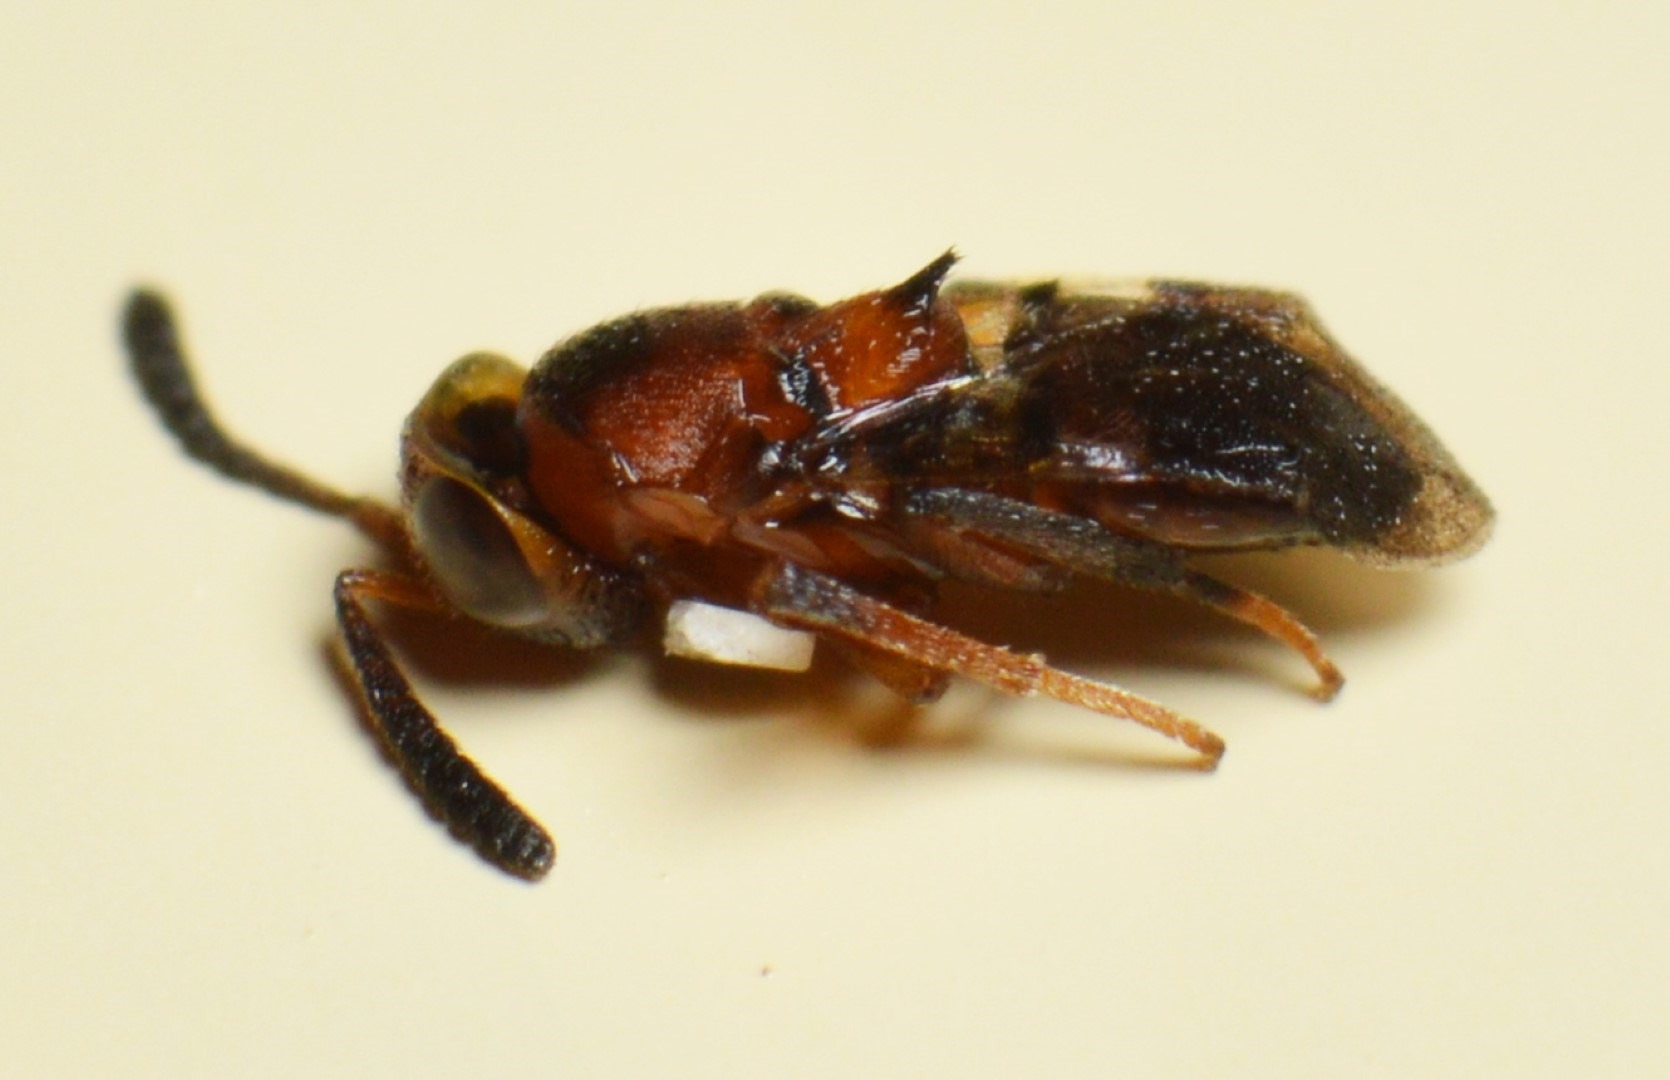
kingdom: Animalia
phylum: Arthropoda
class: Insecta
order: Hymenoptera
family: Encyrtidae
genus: Encyrtus
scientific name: Encyrtus swederi
